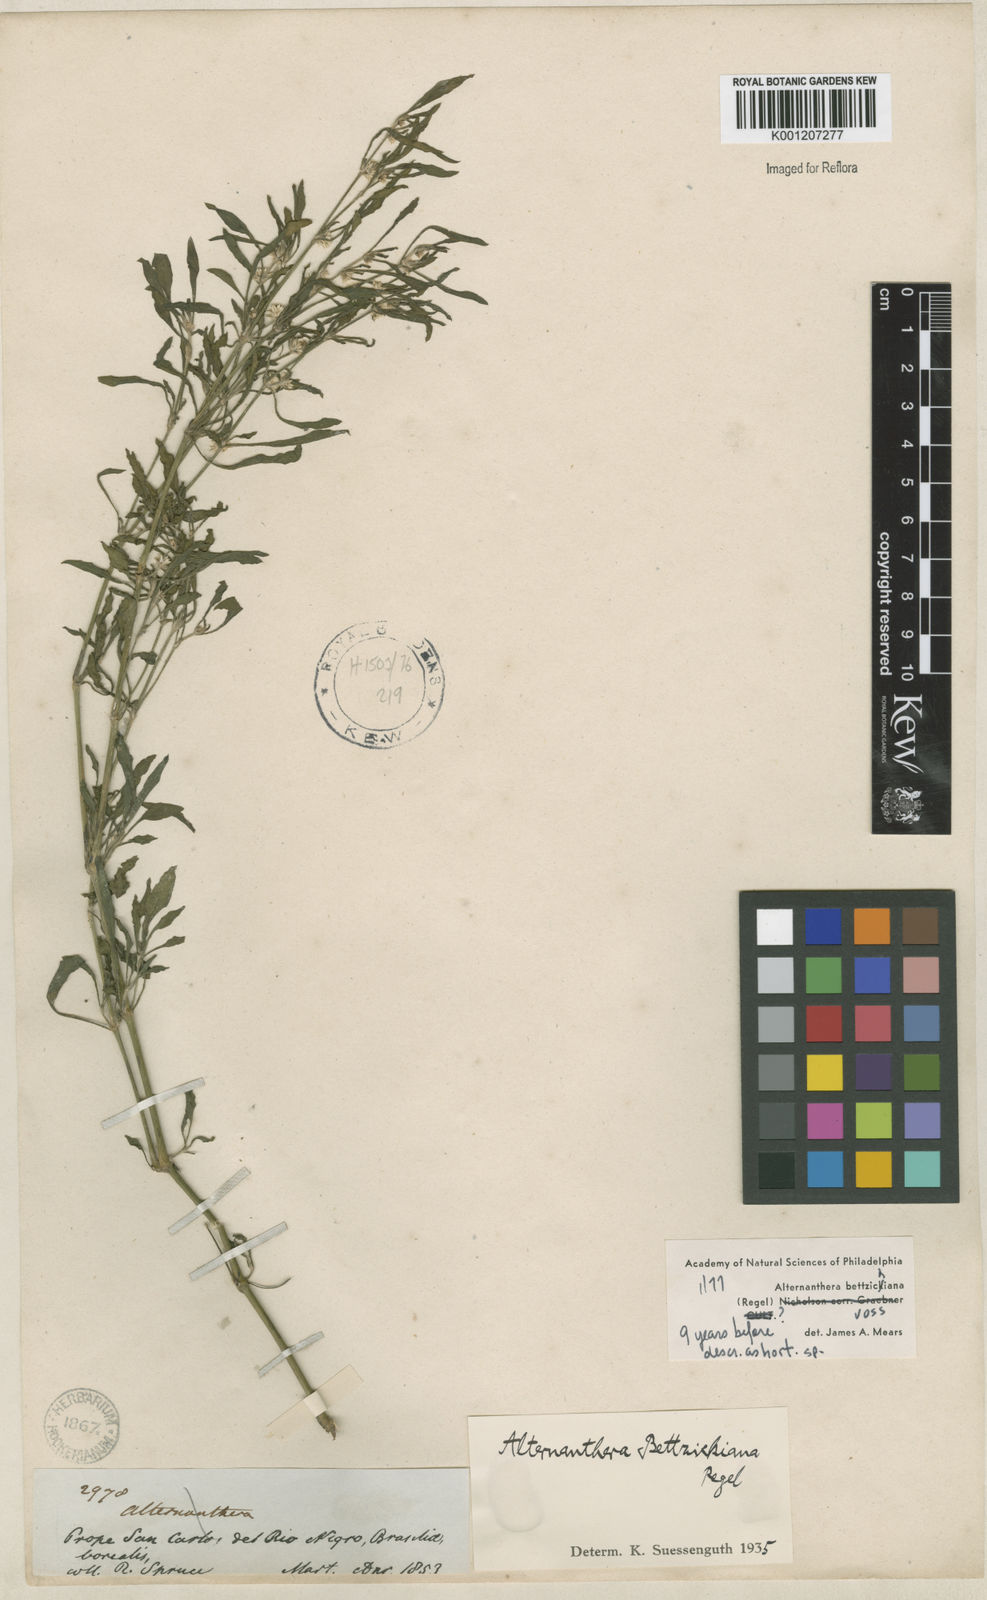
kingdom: Plantae
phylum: Tracheophyta
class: Magnoliopsida
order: Caryophyllales
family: Amaranthaceae
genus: Alternanthera
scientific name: Alternanthera bettzickiana
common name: Calico-plant
